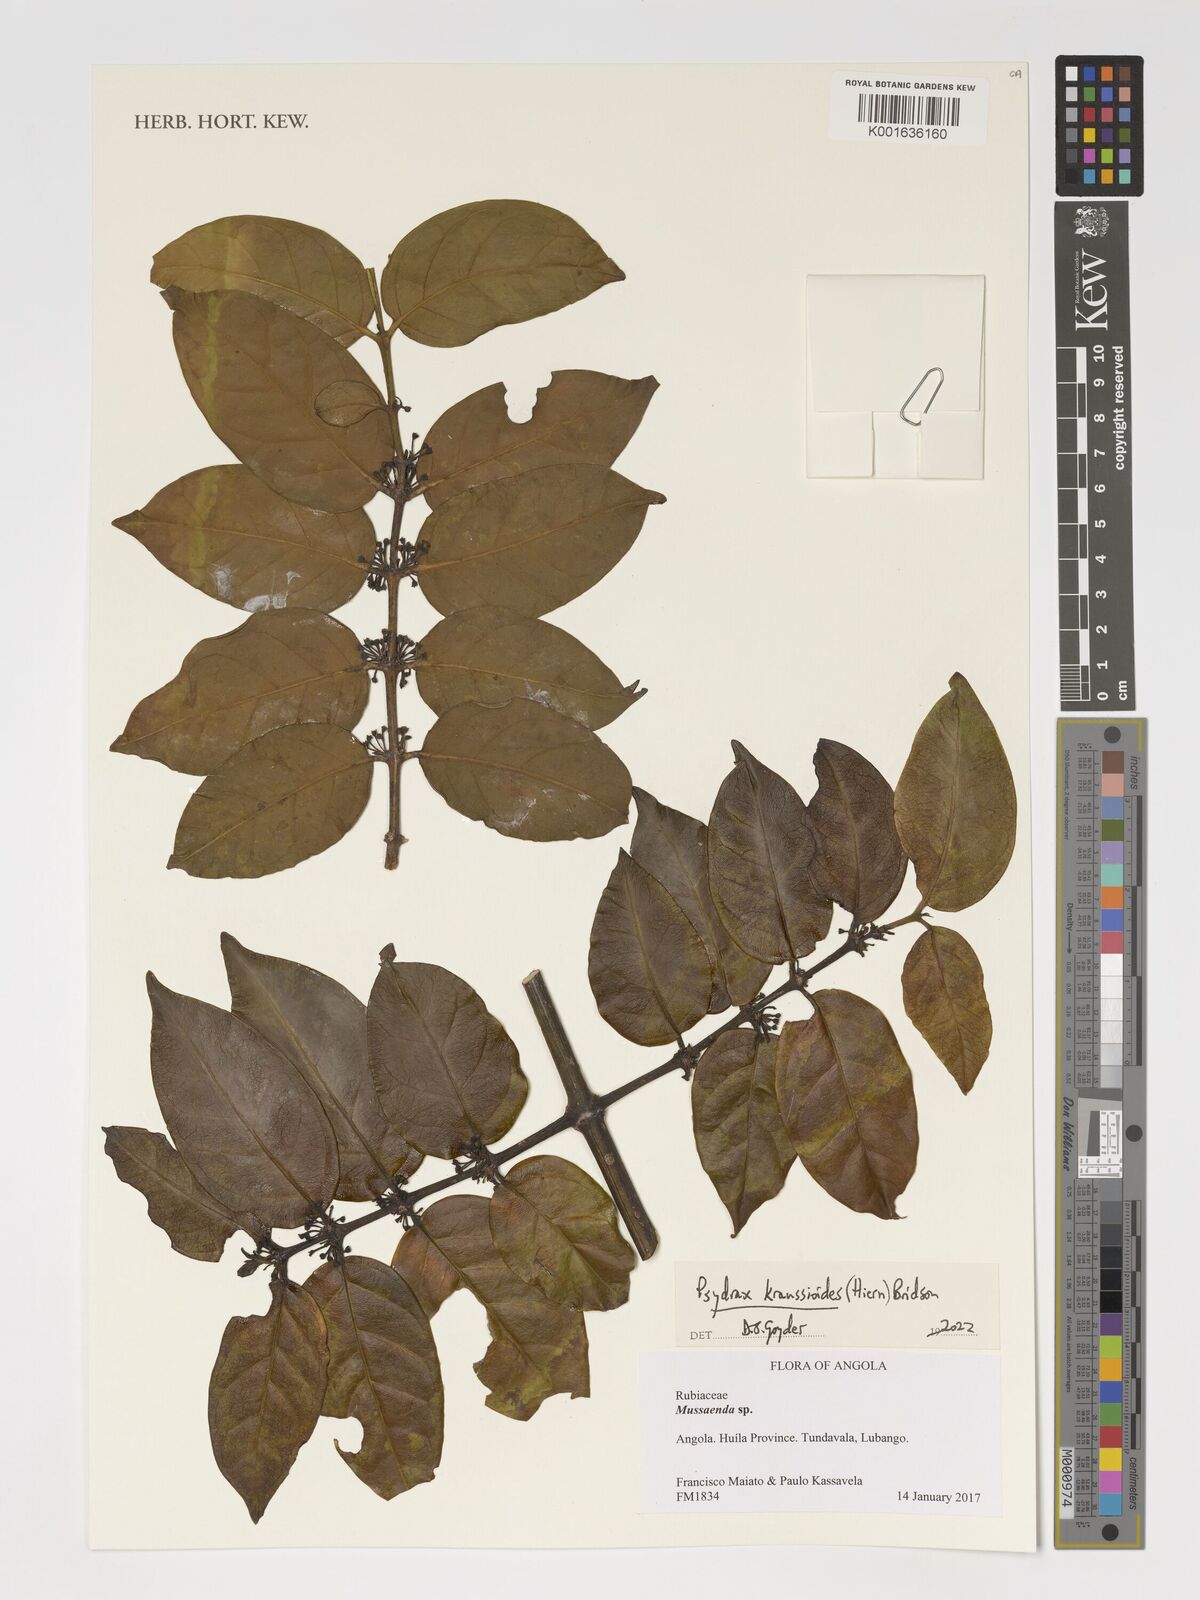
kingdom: Plantae
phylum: Tracheophyta
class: Magnoliopsida
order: Gentianales
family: Rubiaceae
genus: Psydrax
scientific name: Psydrax kraussioides
